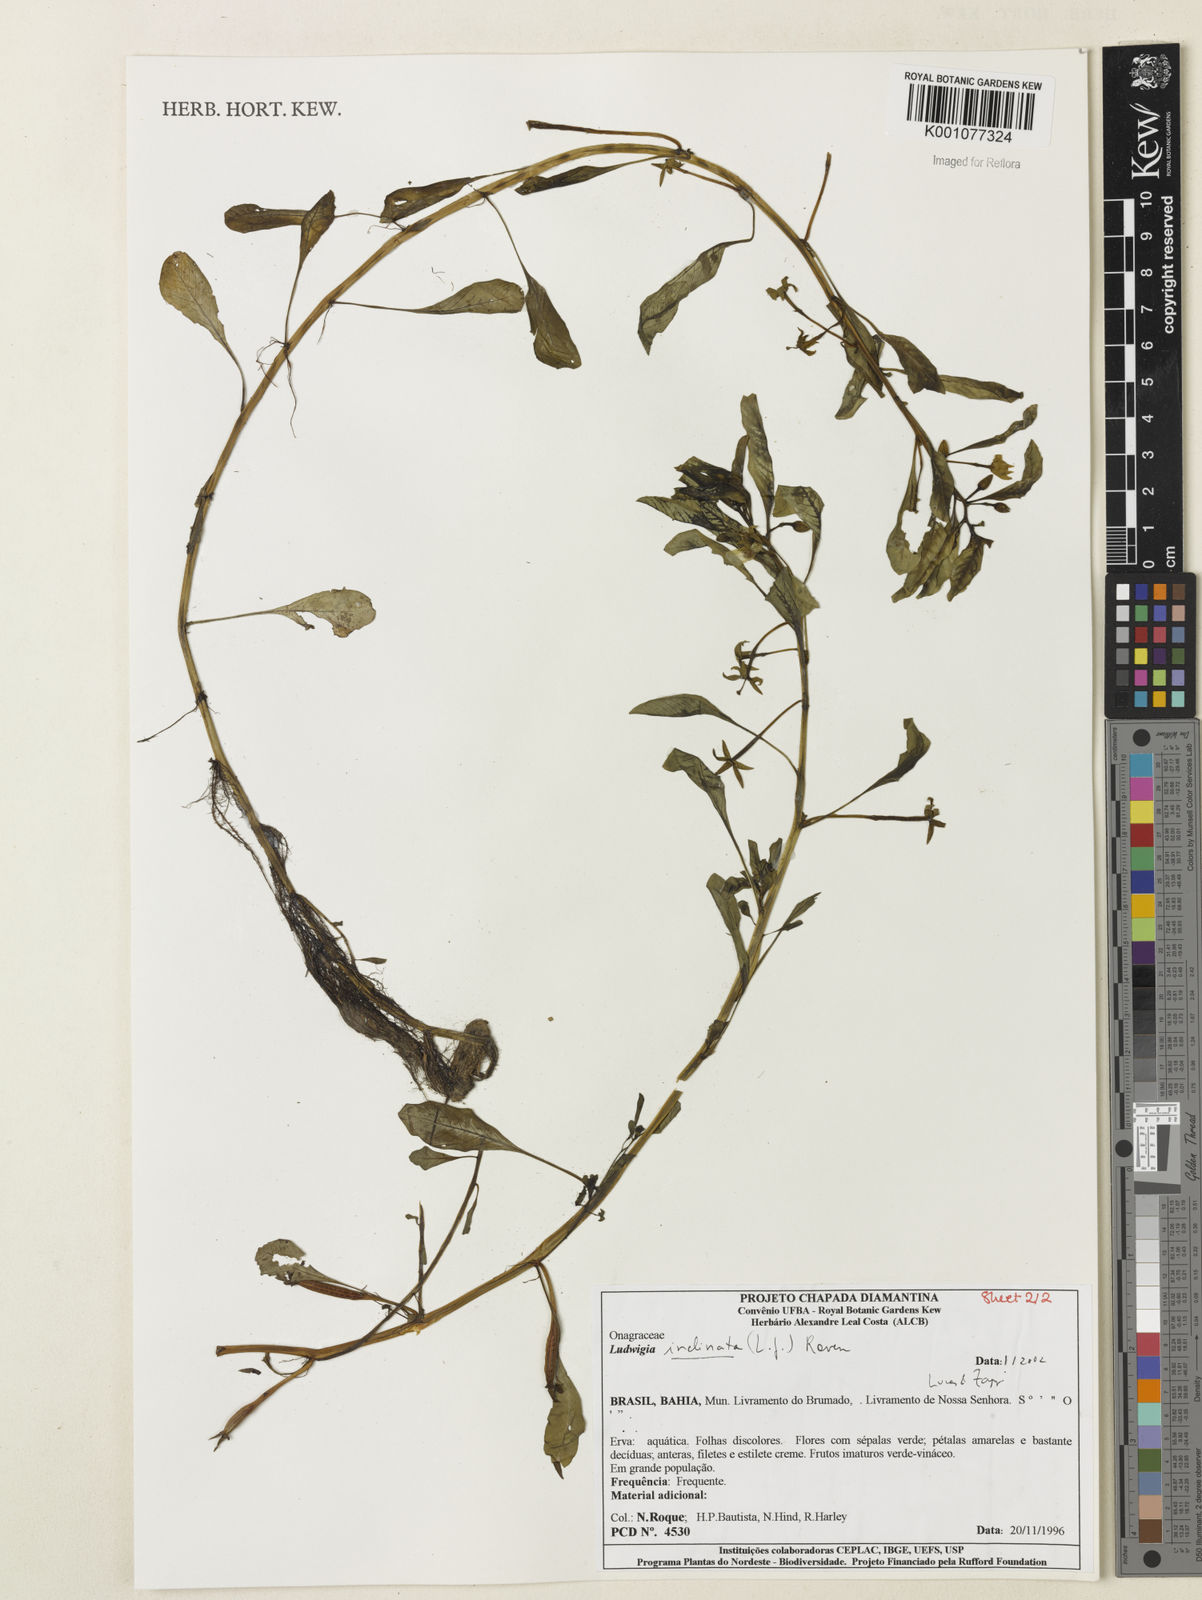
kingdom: Plantae
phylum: Tracheophyta
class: Magnoliopsida
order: Myrtales
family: Onagraceae
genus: Ludwigia
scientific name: Ludwigia
